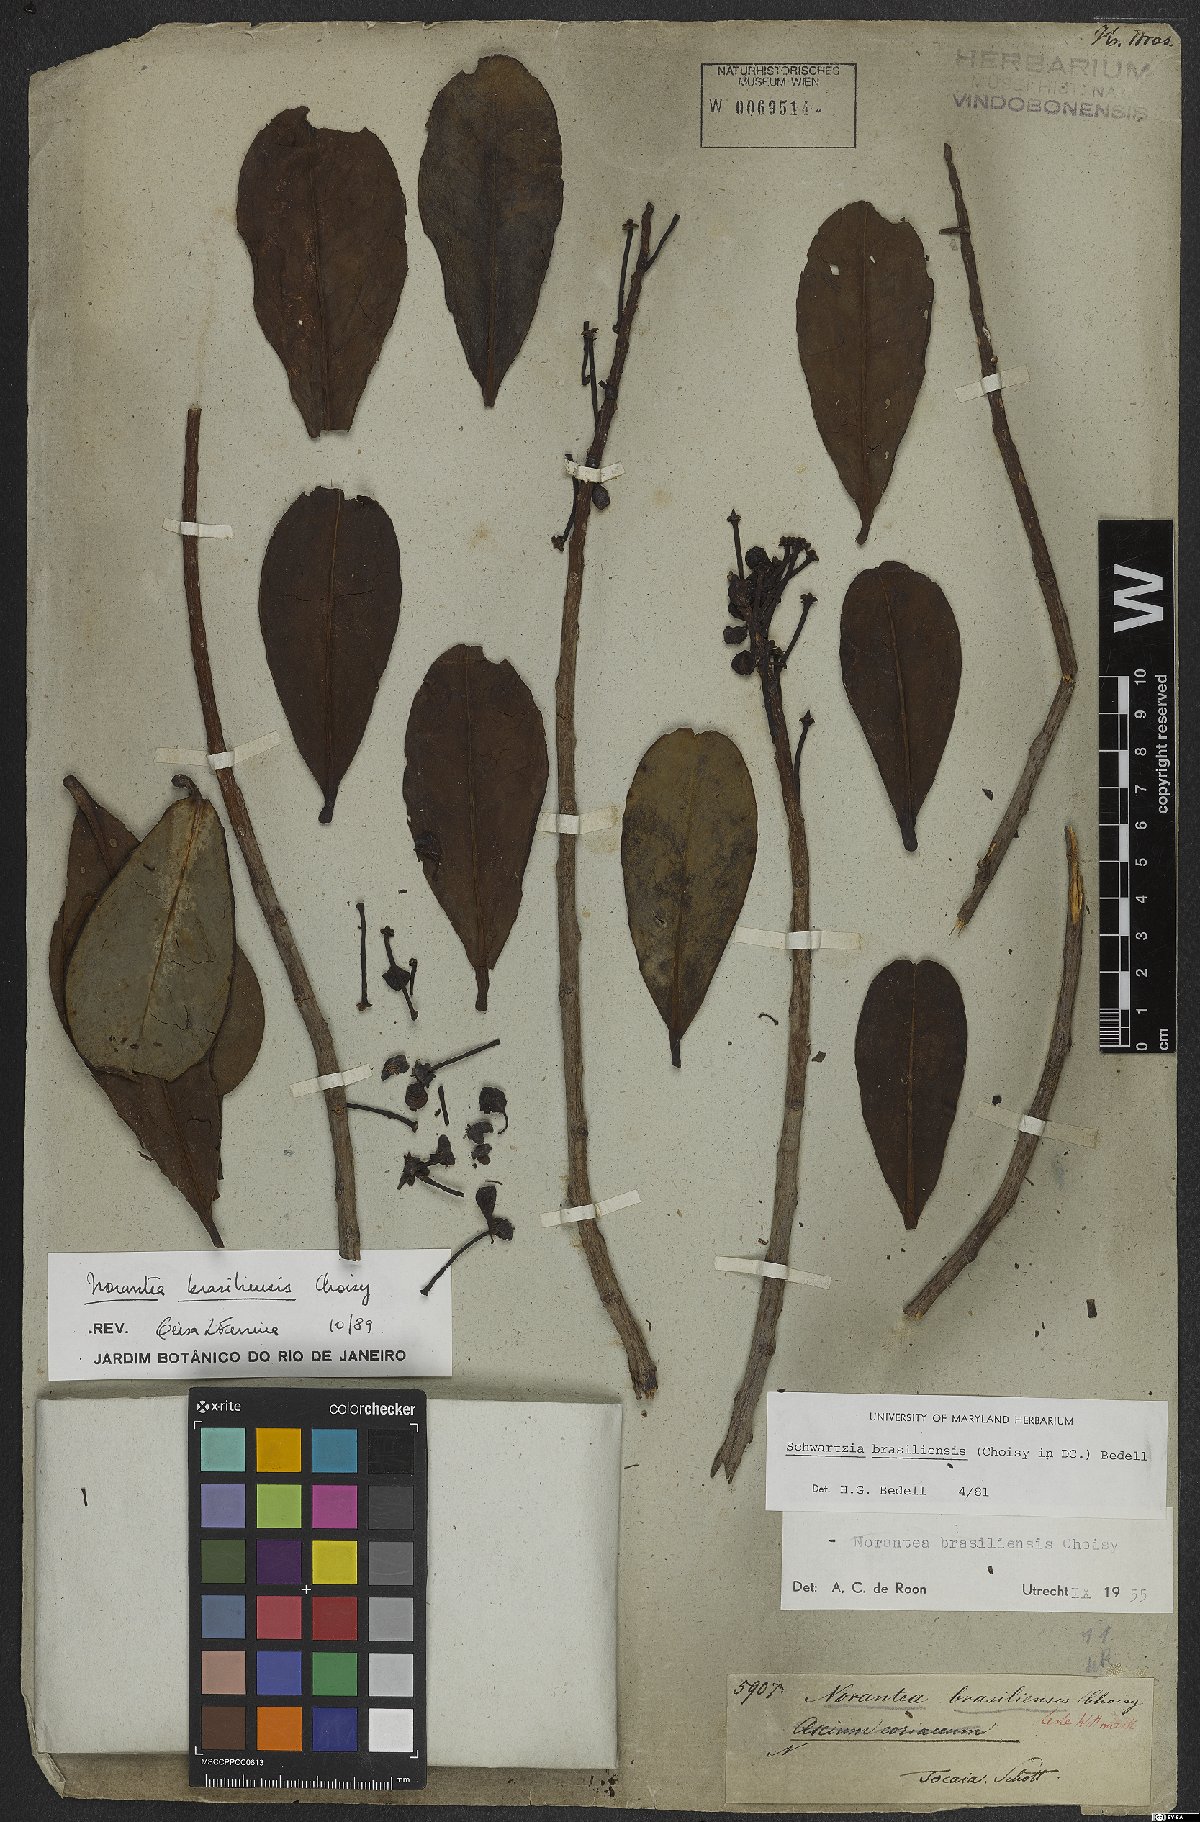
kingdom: Plantae
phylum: Tracheophyta
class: Magnoliopsida
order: Ericales
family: Marcgraviaceae
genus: Schwartzia
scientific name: Schwartzia brasiliensis
